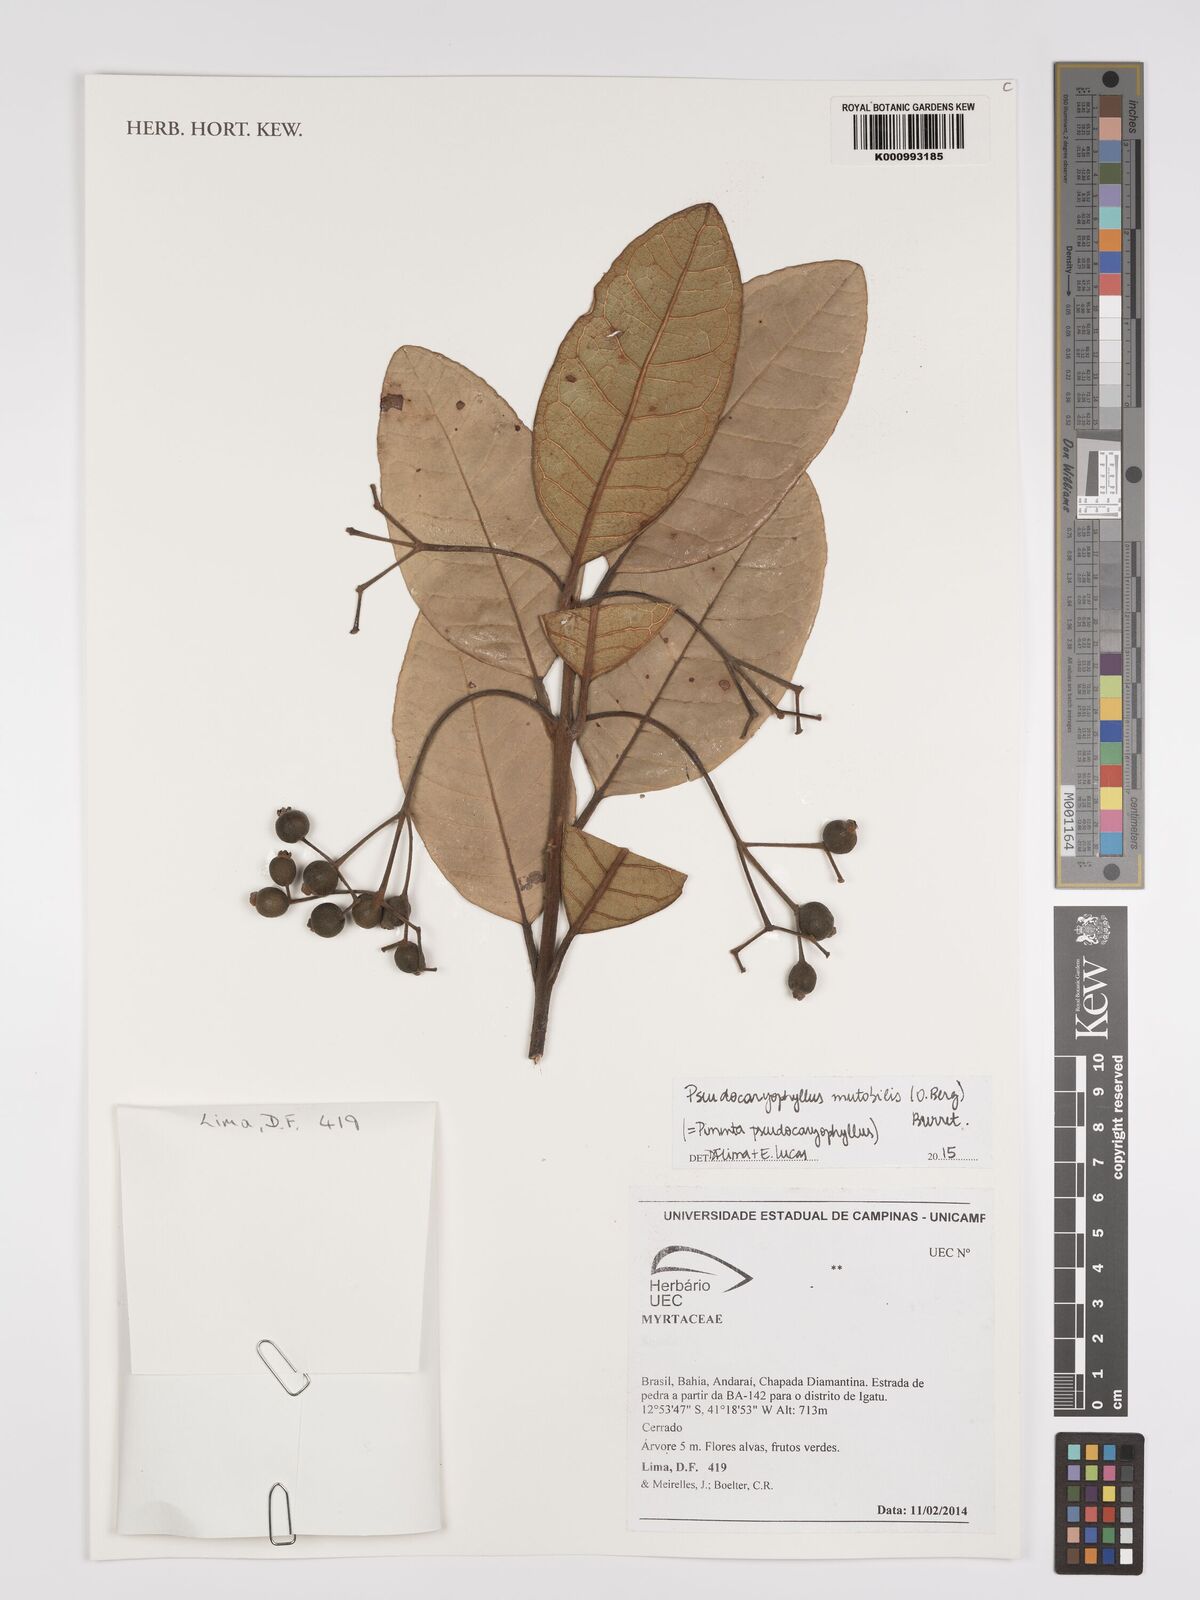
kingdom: Plantae
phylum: Tracheophyta
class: Magnoliopsida
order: Myrtales
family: Myrtaceae
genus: Pimenta
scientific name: Pimenta pseudocaryophyllus
